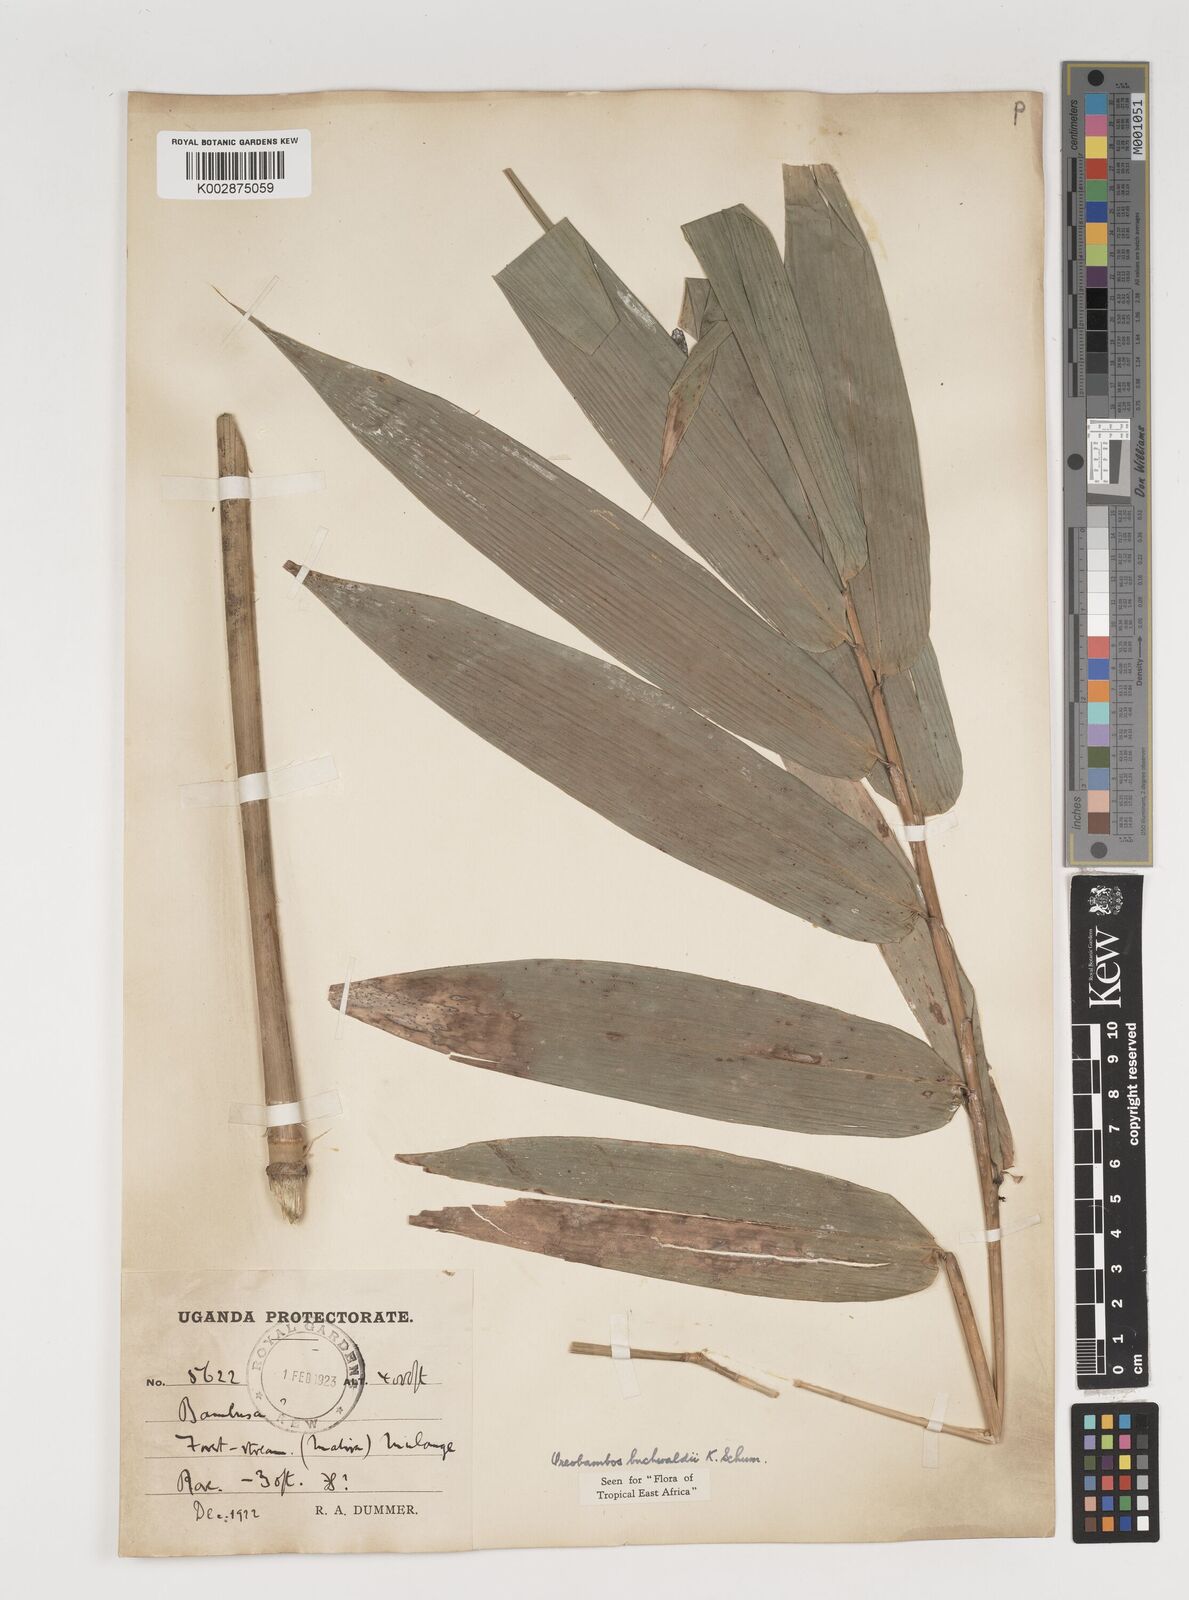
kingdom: Plantae
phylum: Tracheophyta
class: Liliopsida
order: Poales
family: Poaceae
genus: Oreobambos
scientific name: Oreobambos
